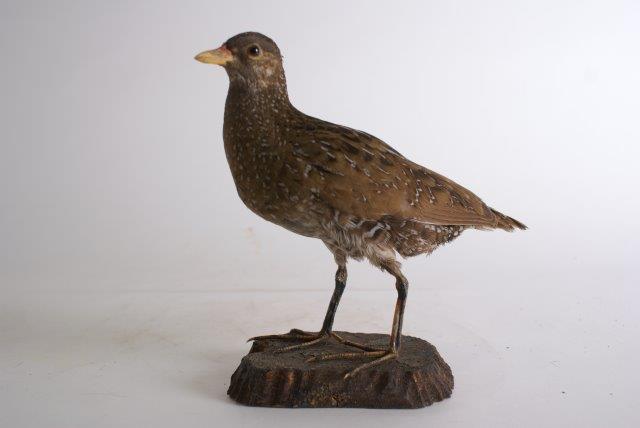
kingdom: Animalia
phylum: Chordata
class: Aves
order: Gruiformes
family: Rallidae
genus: Porzana
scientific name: Porzana porzana
